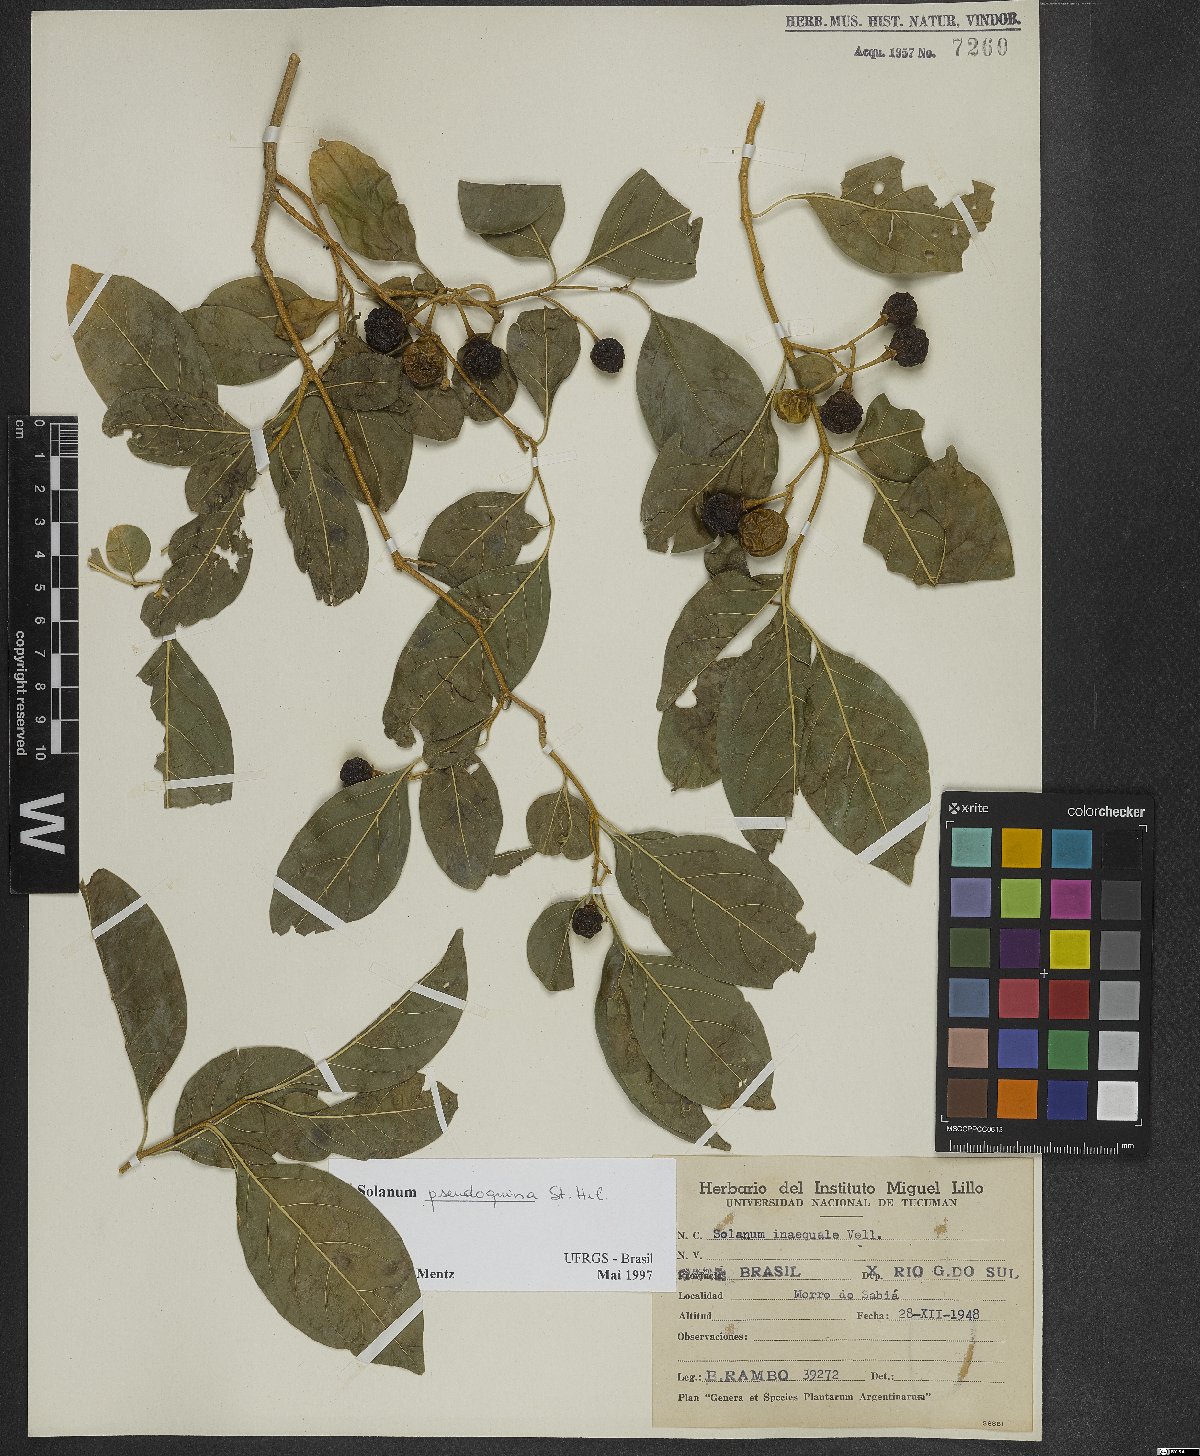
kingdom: Plantae
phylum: Tracheophyta
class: Magnoliopsida
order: Solanales
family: Solanaceae
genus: Solanum
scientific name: Solanum pseudoquina
